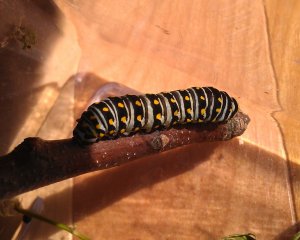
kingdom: Animalia
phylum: Arthropoda
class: Insecta
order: Lepidoptera
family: Papilionidae
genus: Papilio
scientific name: Papilio polyxenes
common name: Black Swallowtail
